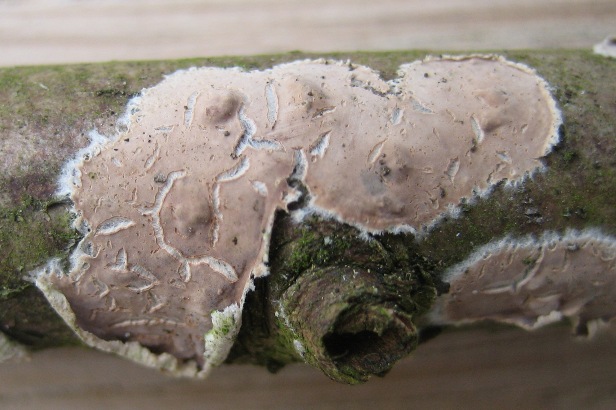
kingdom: Fungi
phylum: Basidiomycota
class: Agaricomycetes
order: Agaricales
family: Physalacriaceae
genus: Cylindrobasidium
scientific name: Cylindrobasidium evolvens
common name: sprækkehinde
